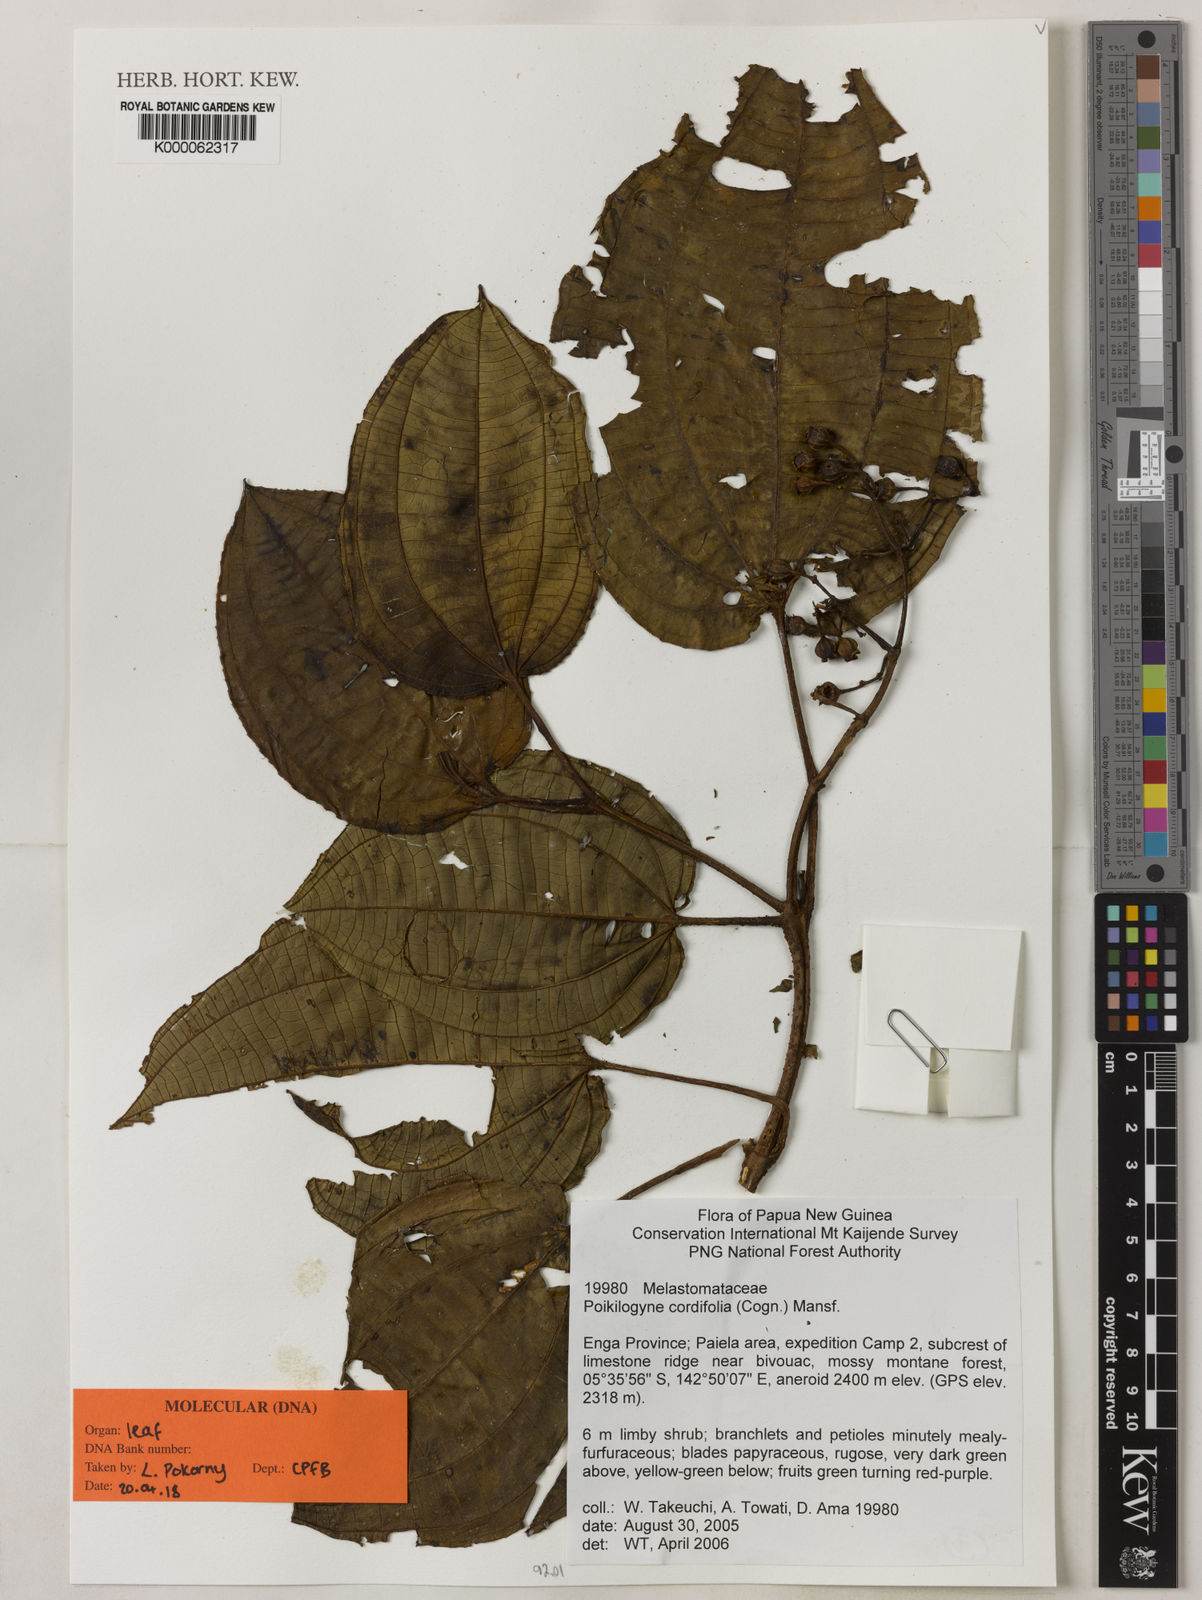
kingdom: Plantae
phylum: Tracheophyta
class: Magnoliopsida
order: Myrtales
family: Melastomataceae
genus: Poikilogyne
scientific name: Poikilogyne cordifolia
